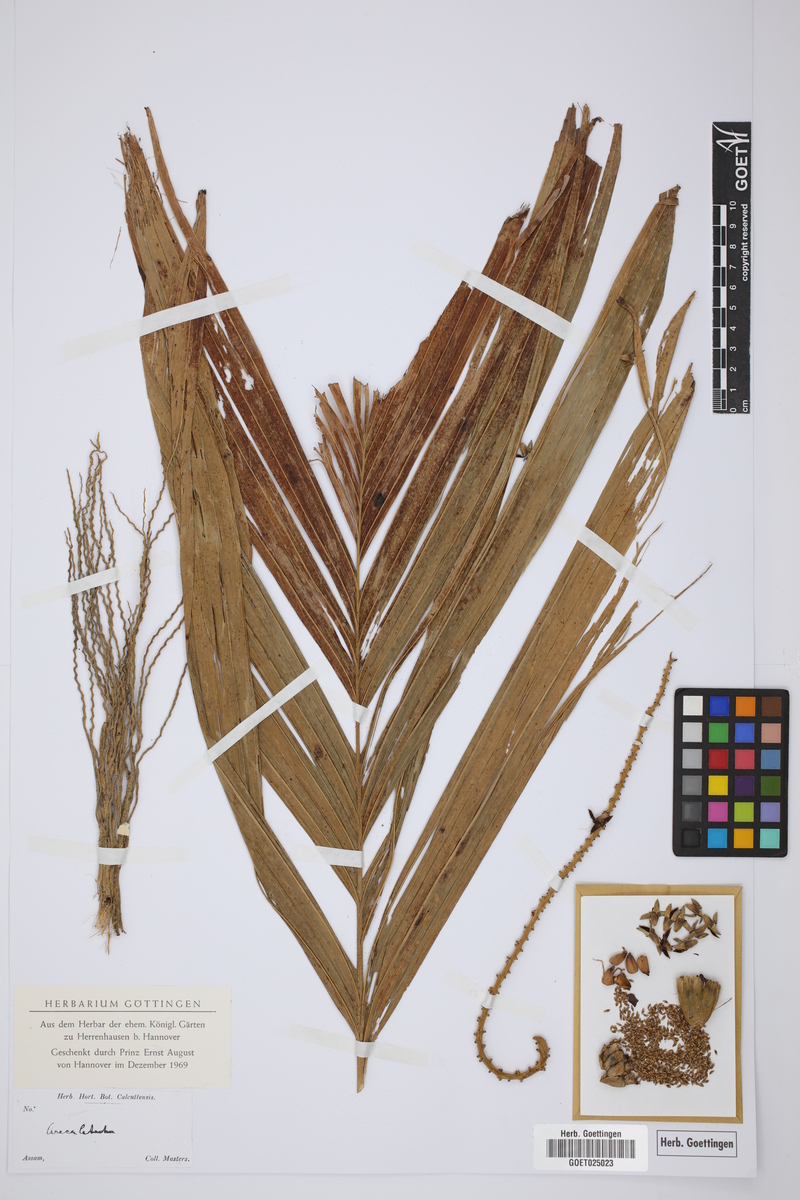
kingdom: Plantae
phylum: Tracheophyta
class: Liliopsida
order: Arecales
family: Arecaceae
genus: Areca
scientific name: Areca catechu
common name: Indian-nut
